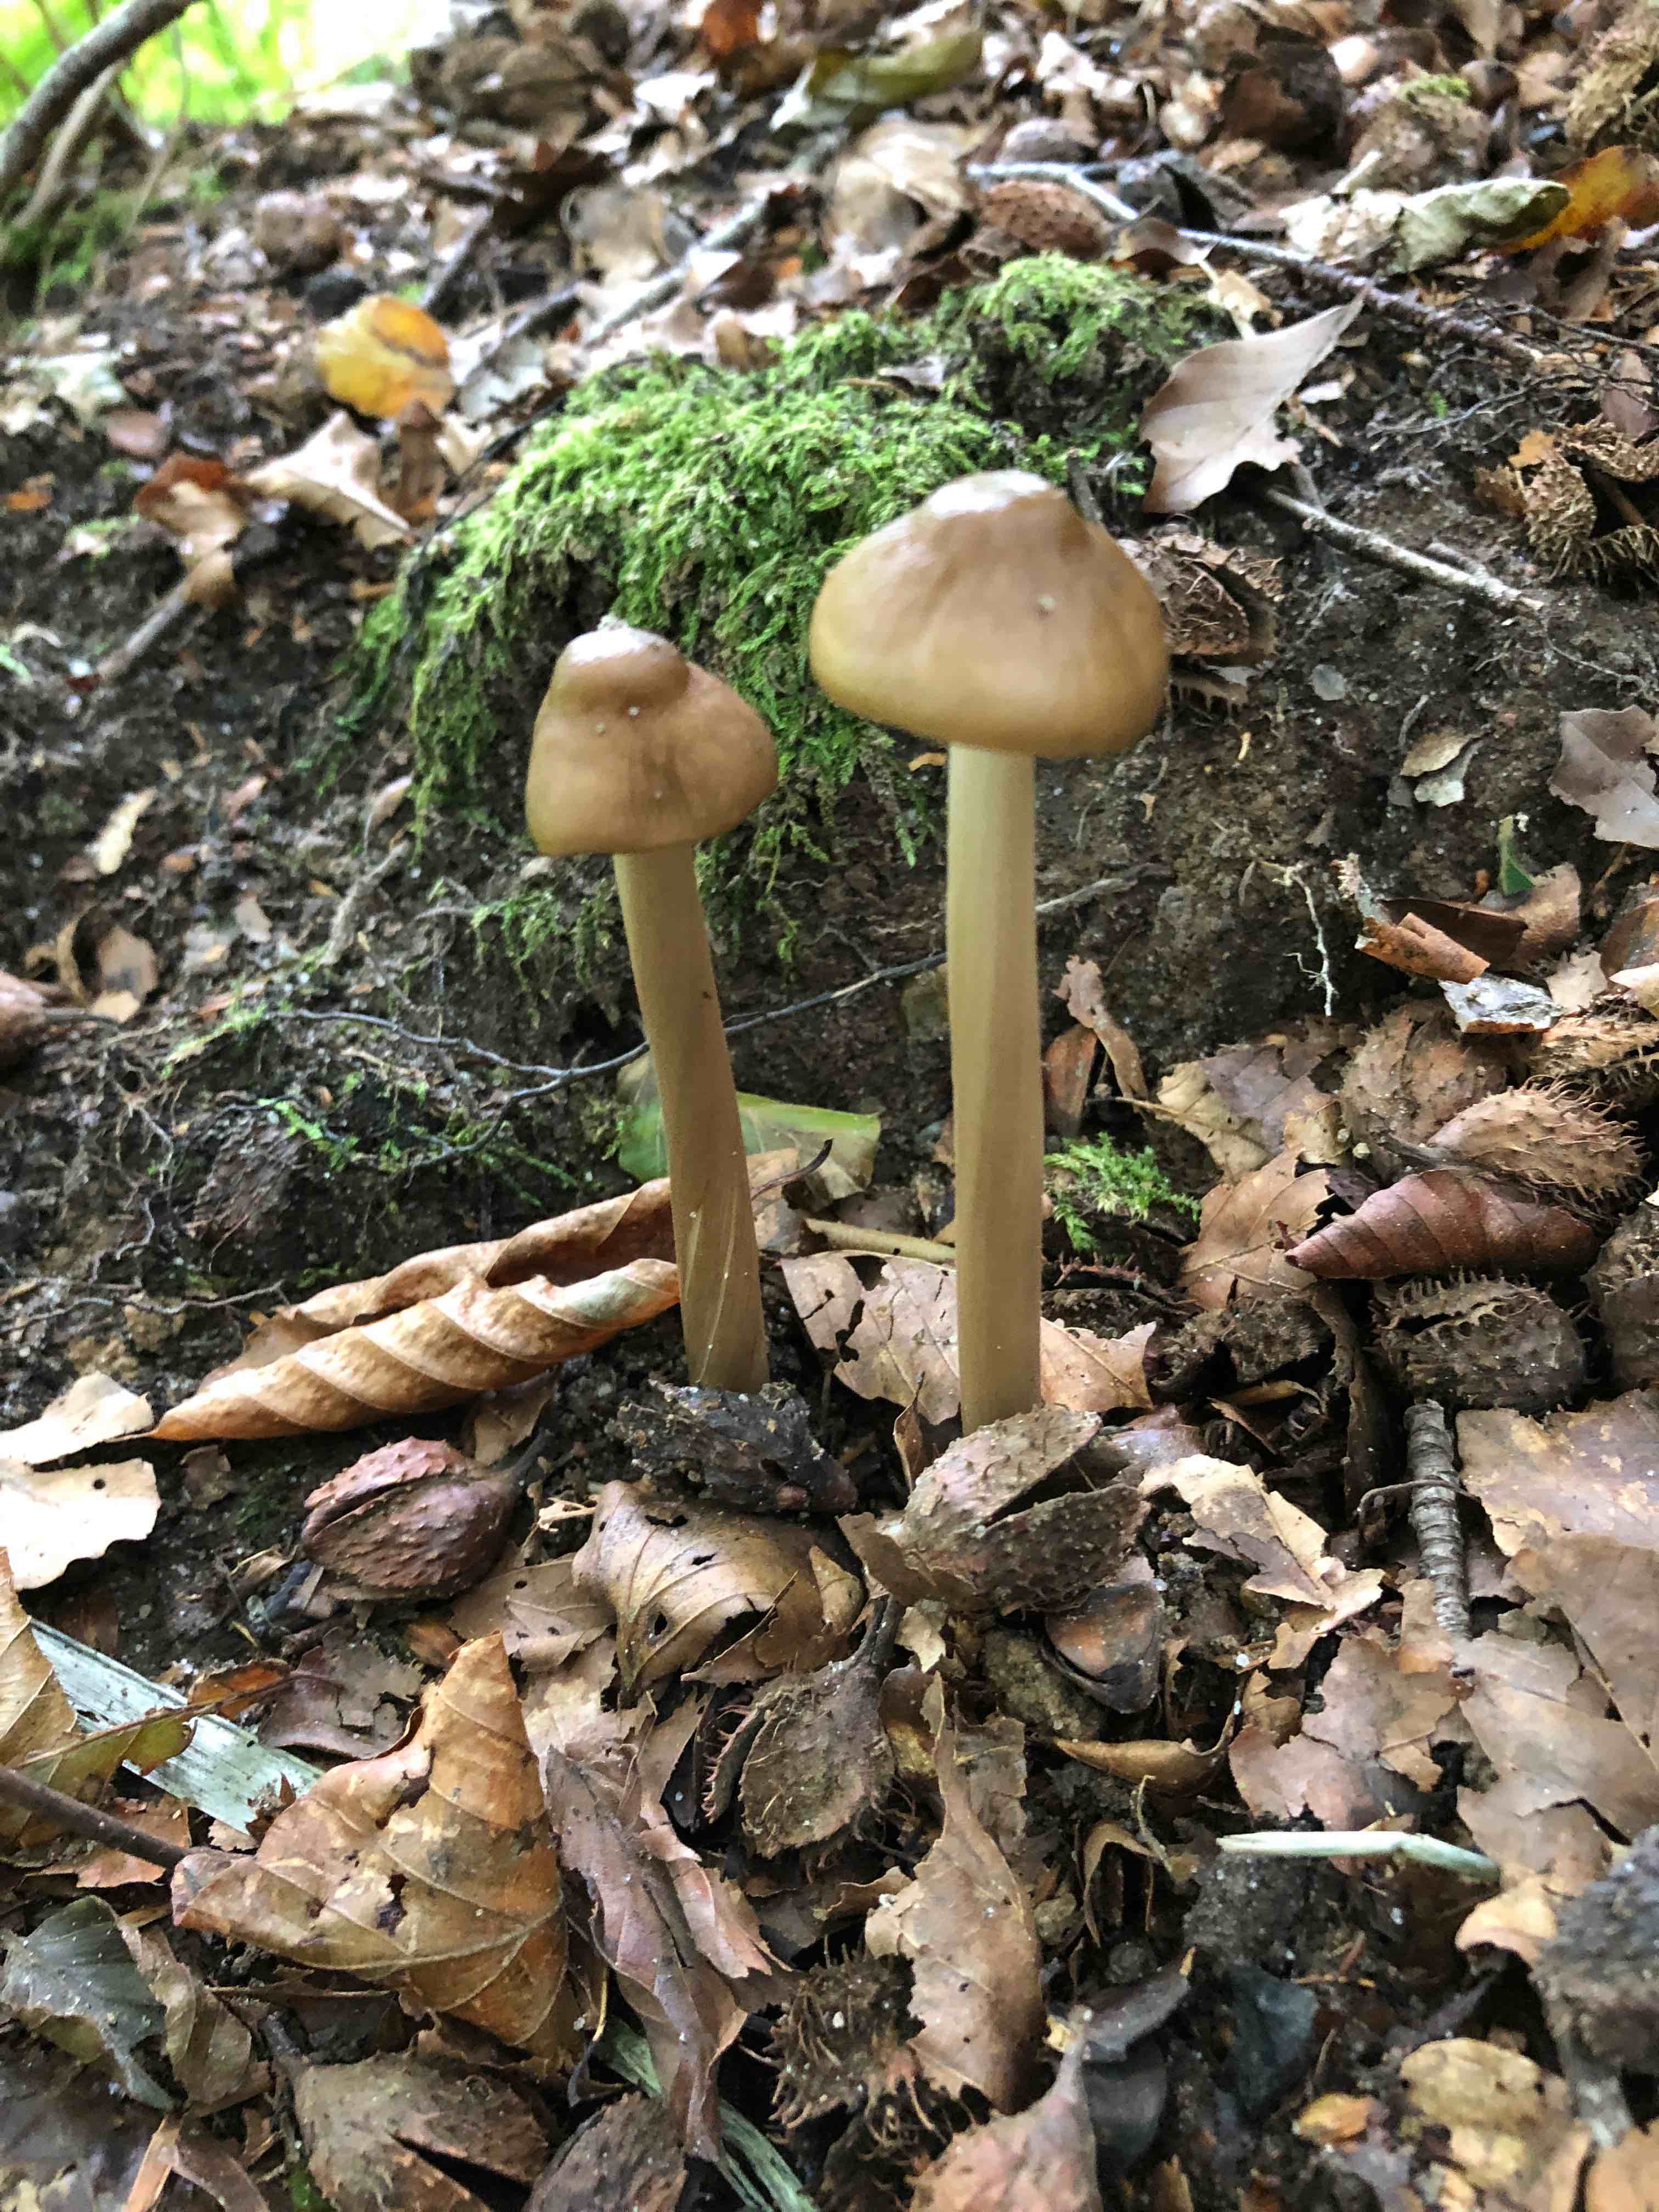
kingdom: Fungi
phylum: Basidiomycota
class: Agaricomycetes
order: Agaricales
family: Physalacriaceae
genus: Hymenopellis
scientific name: Hymenopellis radicata
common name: almindelig pælerodshat
